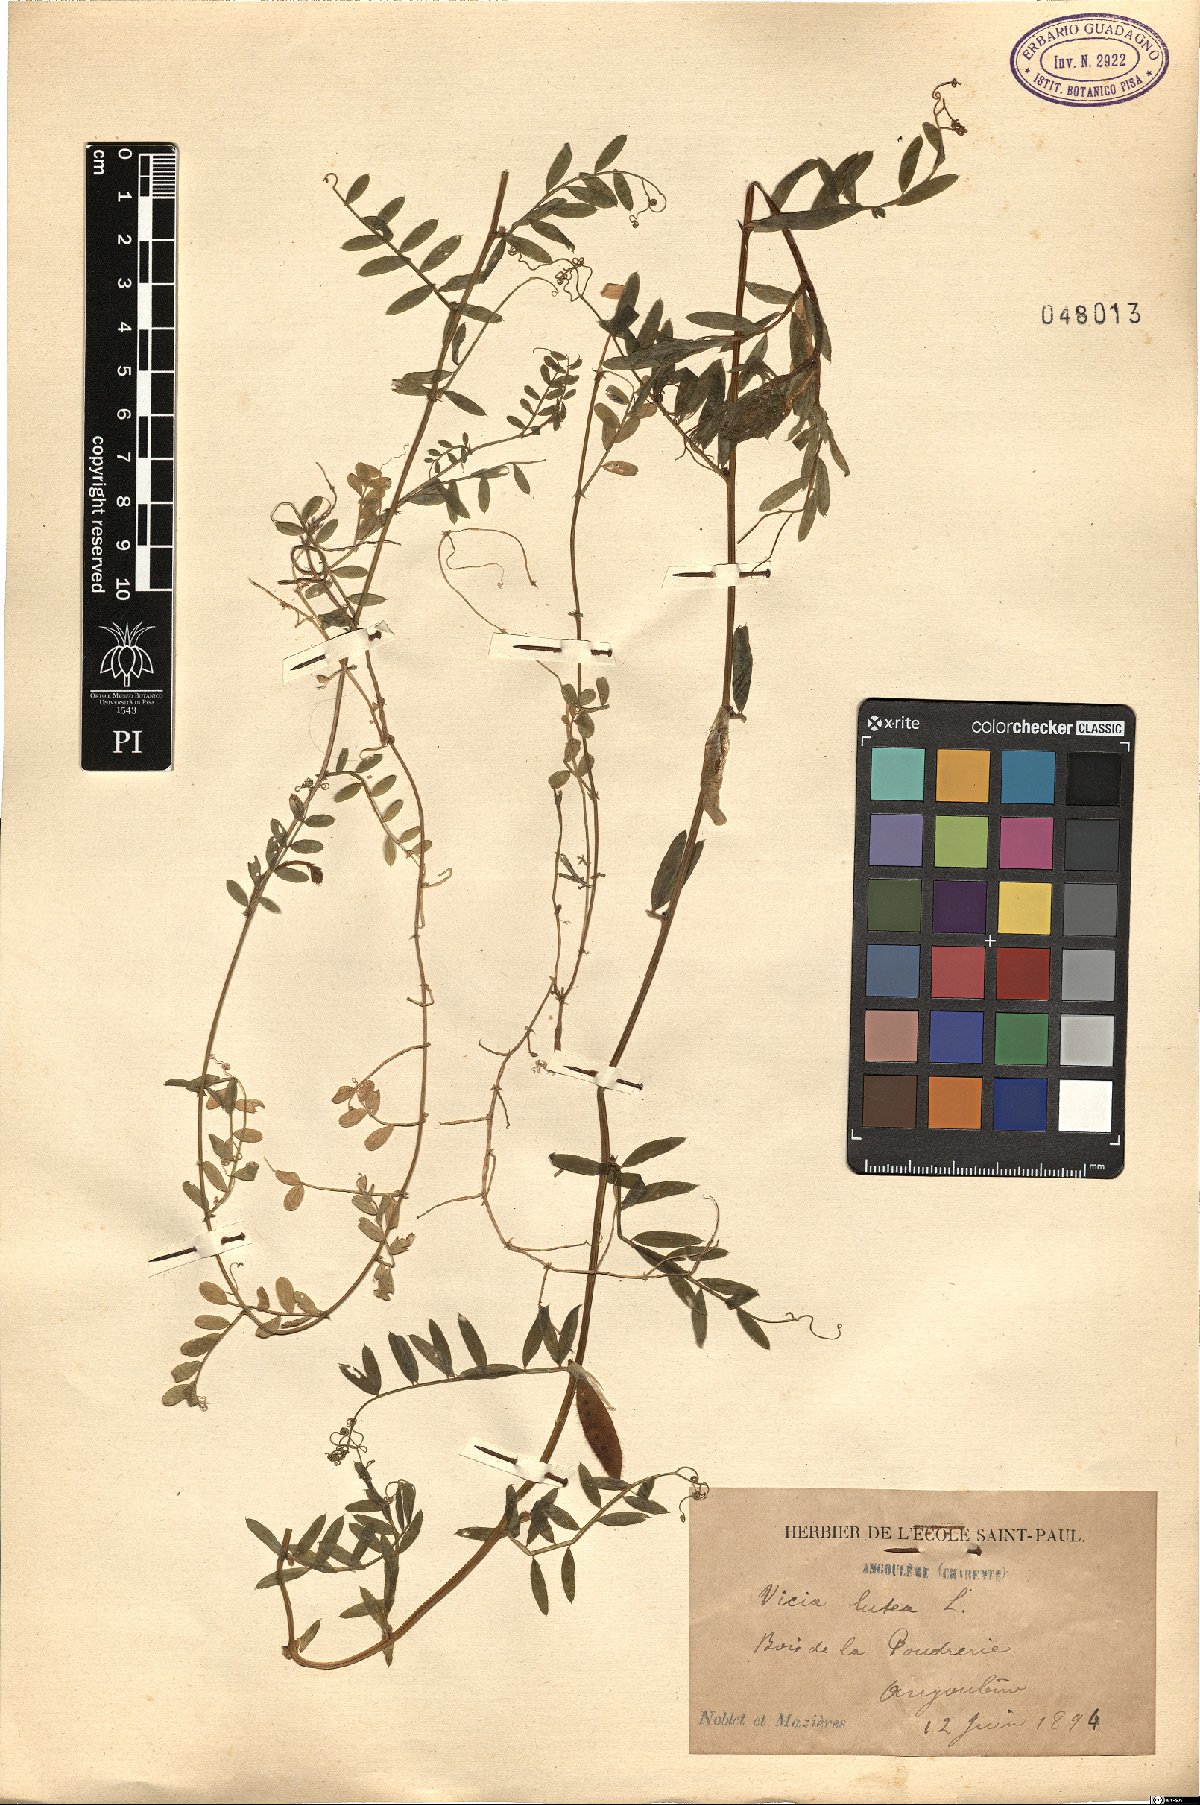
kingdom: Plantae
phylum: Tracheophyta
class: Magnoliopsida
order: Fabales
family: Fabaceae
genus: Vicia
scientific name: Vicia lutea
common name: Smooth yellow vetch
